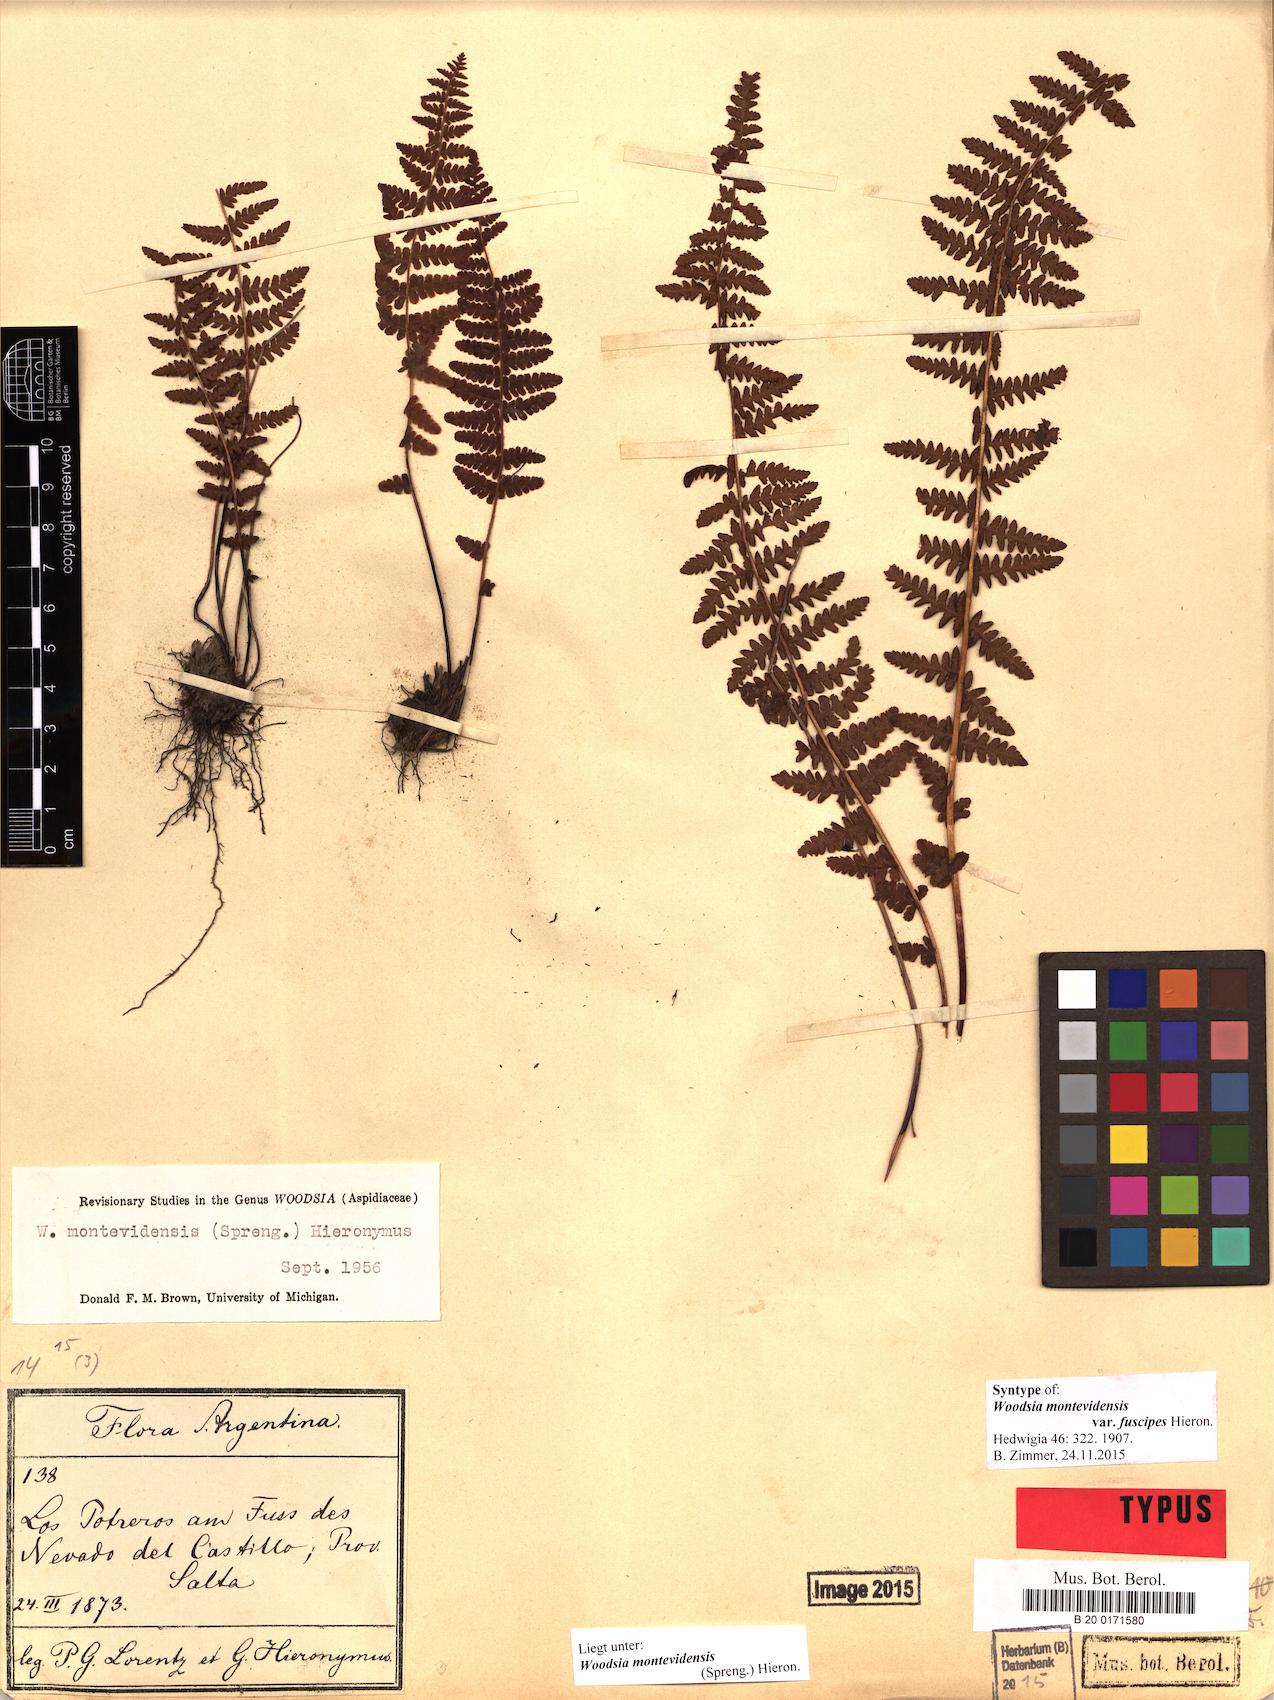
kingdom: Plantae
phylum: Tracheophyta
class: Polypodiopsida
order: Polypodiales
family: Woodsiaceae
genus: Physematium
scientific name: Physematium montevidense
